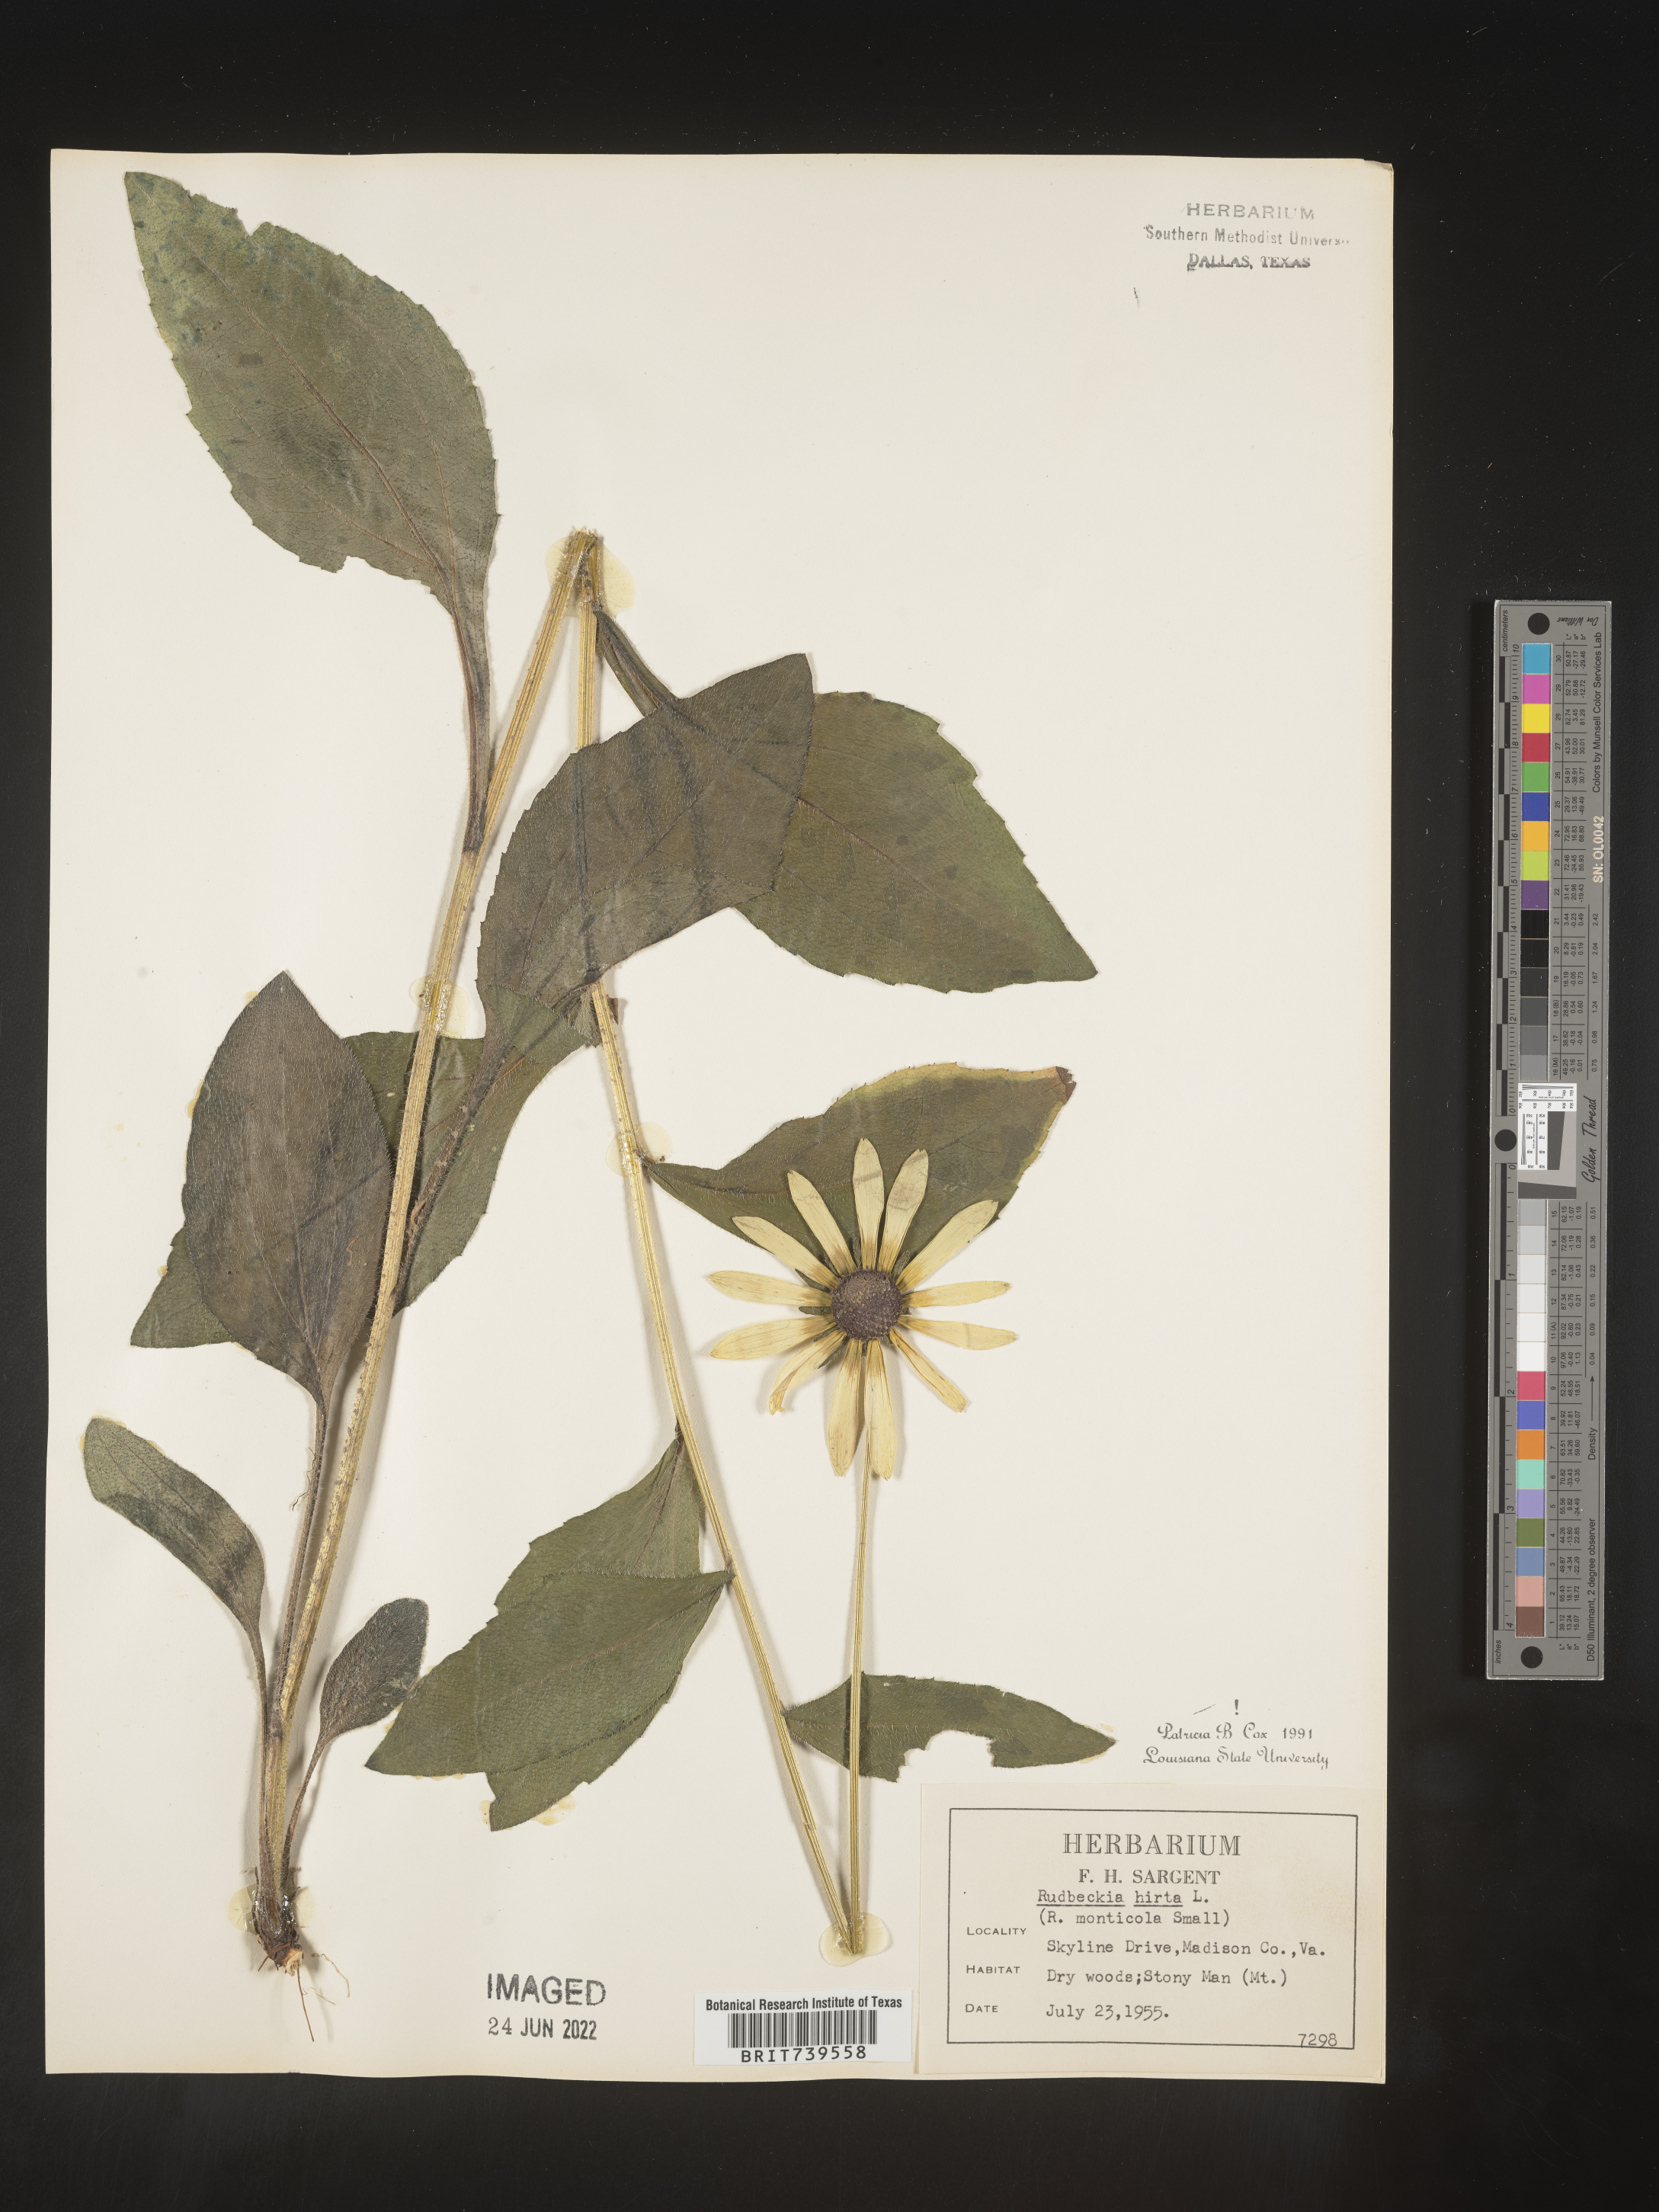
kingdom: Plantae
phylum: Tracheophyta
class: Magnoliopsida
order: Asterales
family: Asteraceae
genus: Rudbeckia
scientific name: Rudbeckia hirta
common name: Black-eyed-susan
